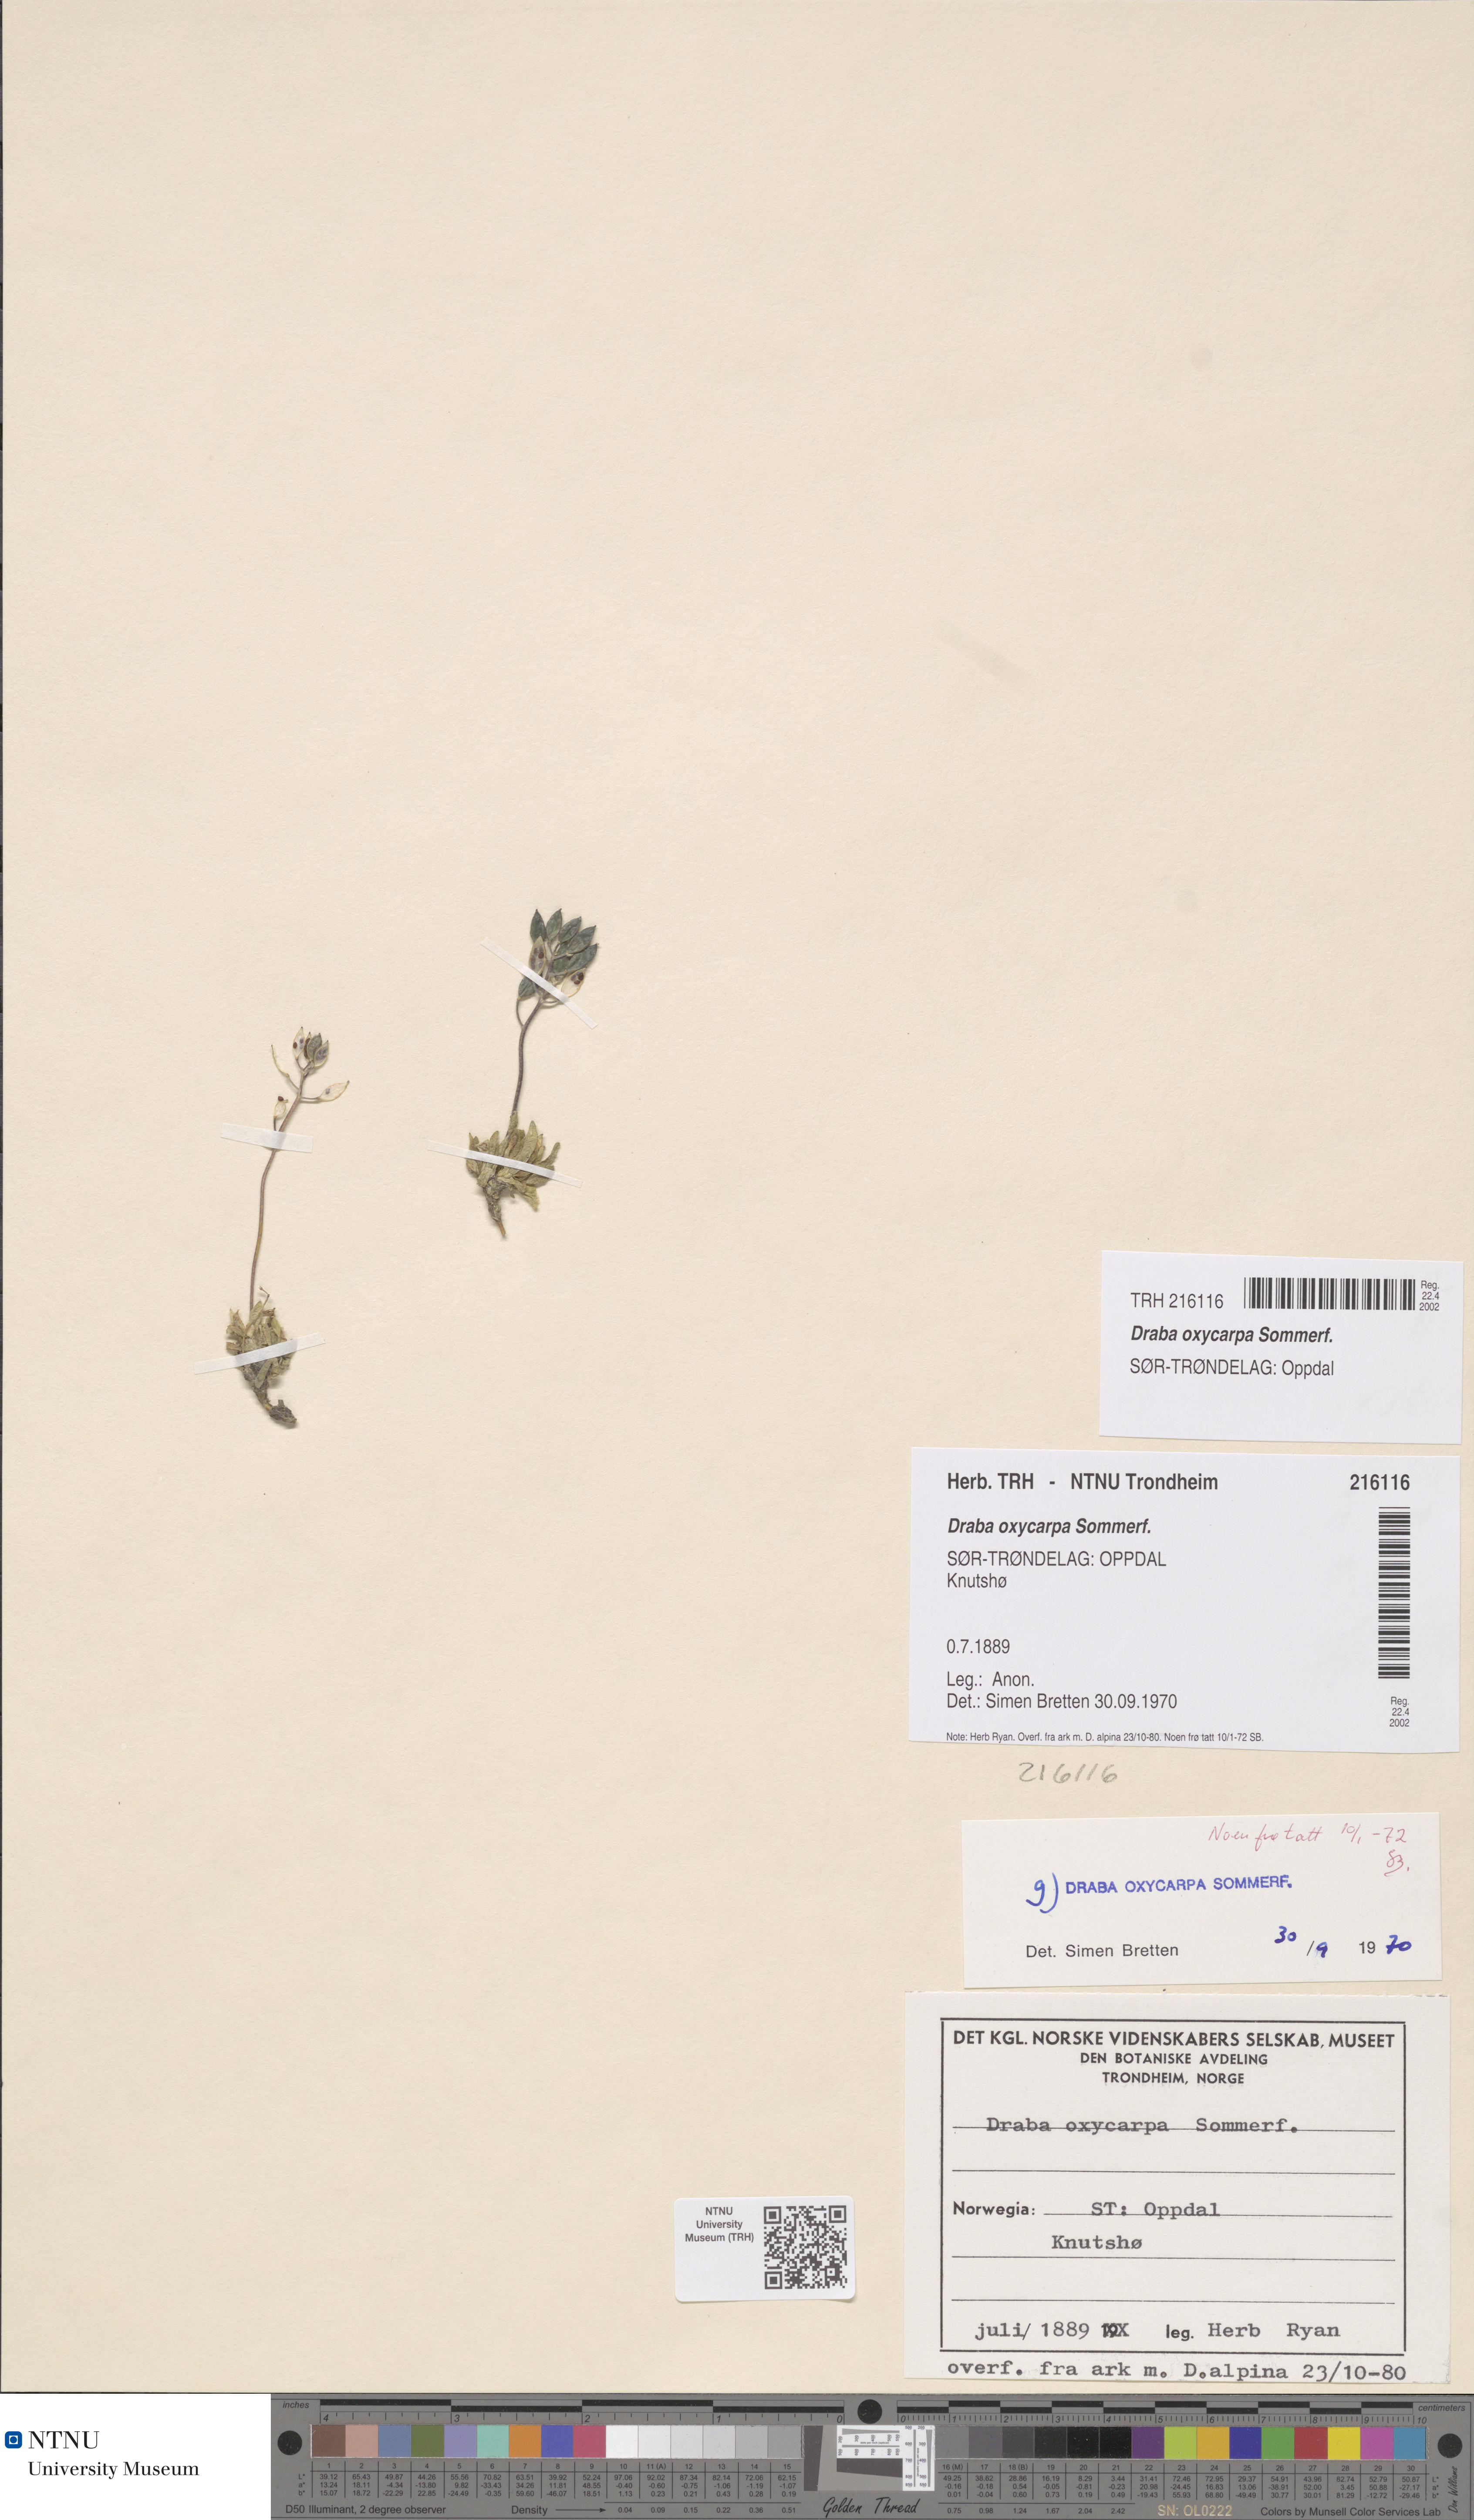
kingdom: Plantae
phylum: Tracheophyta
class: Magnoliopsida
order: Brassicales
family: Brassicaceae
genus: Draba
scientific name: Draba oxycarpa
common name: Sharp-fruited whitlow-grass
